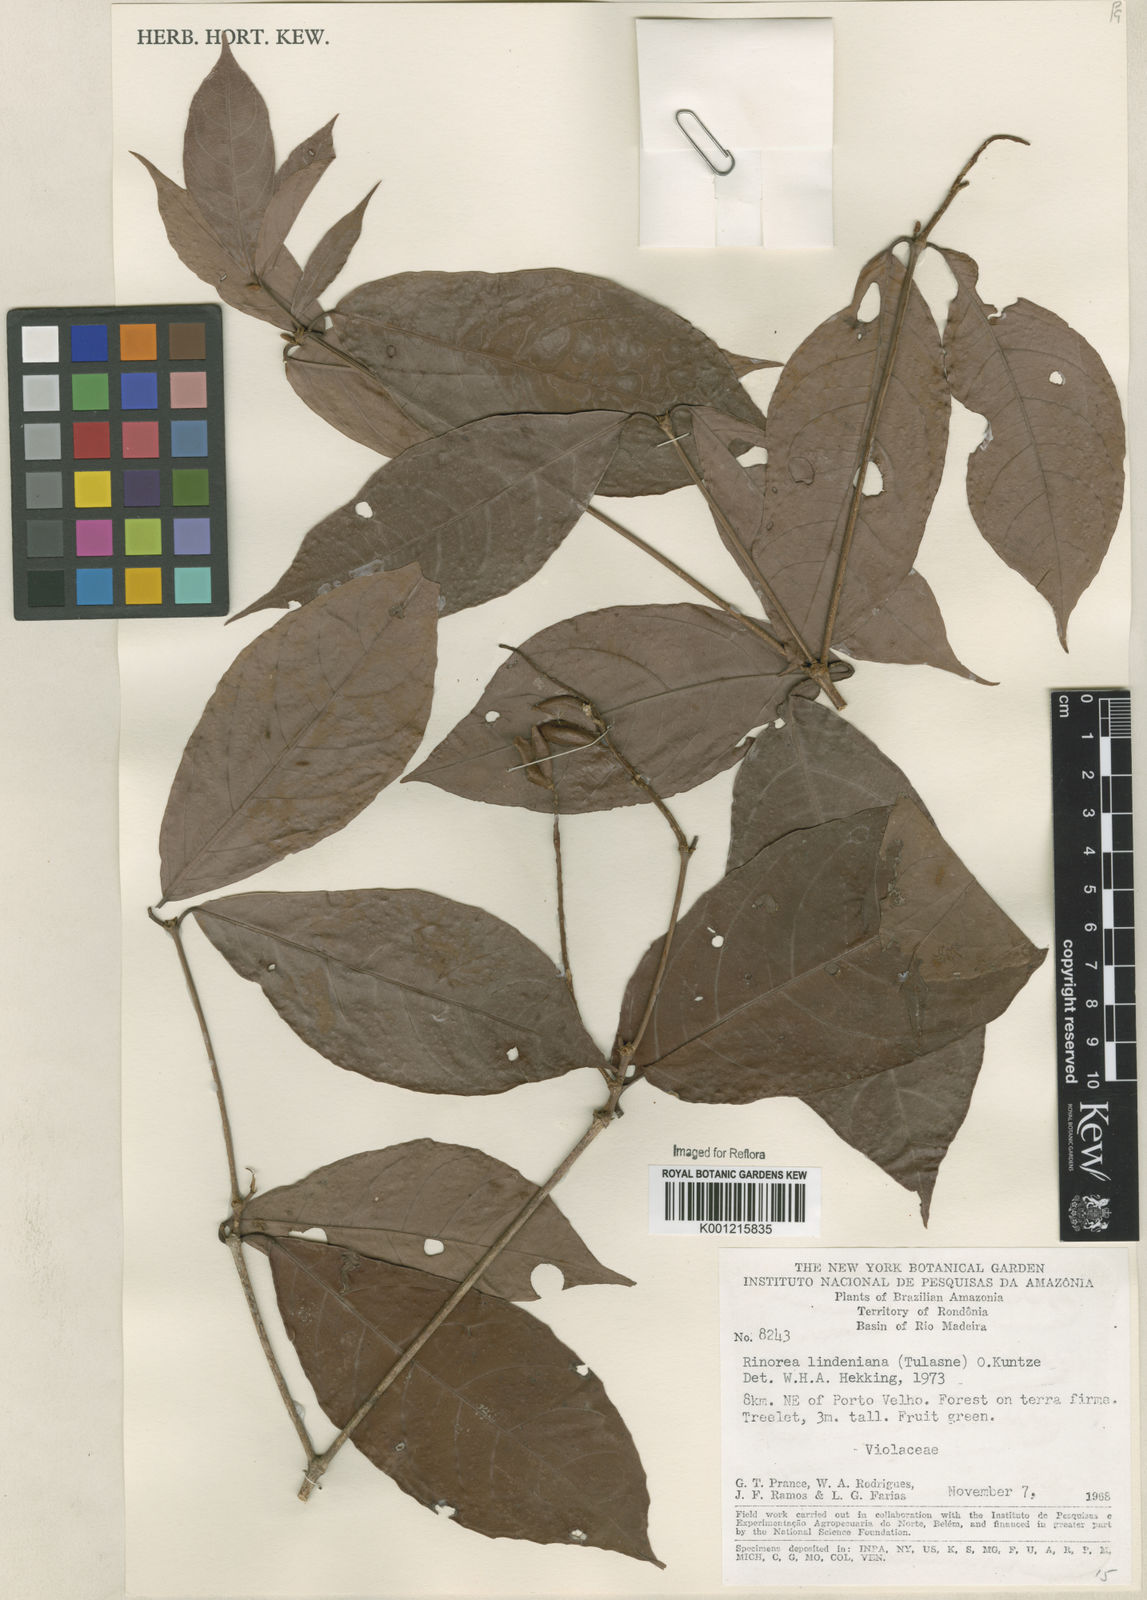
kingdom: Plantae
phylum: Tracheophyta
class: Magnoliopsida
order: Malpighiales
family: Violaceae
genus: Rinorea
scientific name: Rinorea lindeniana
